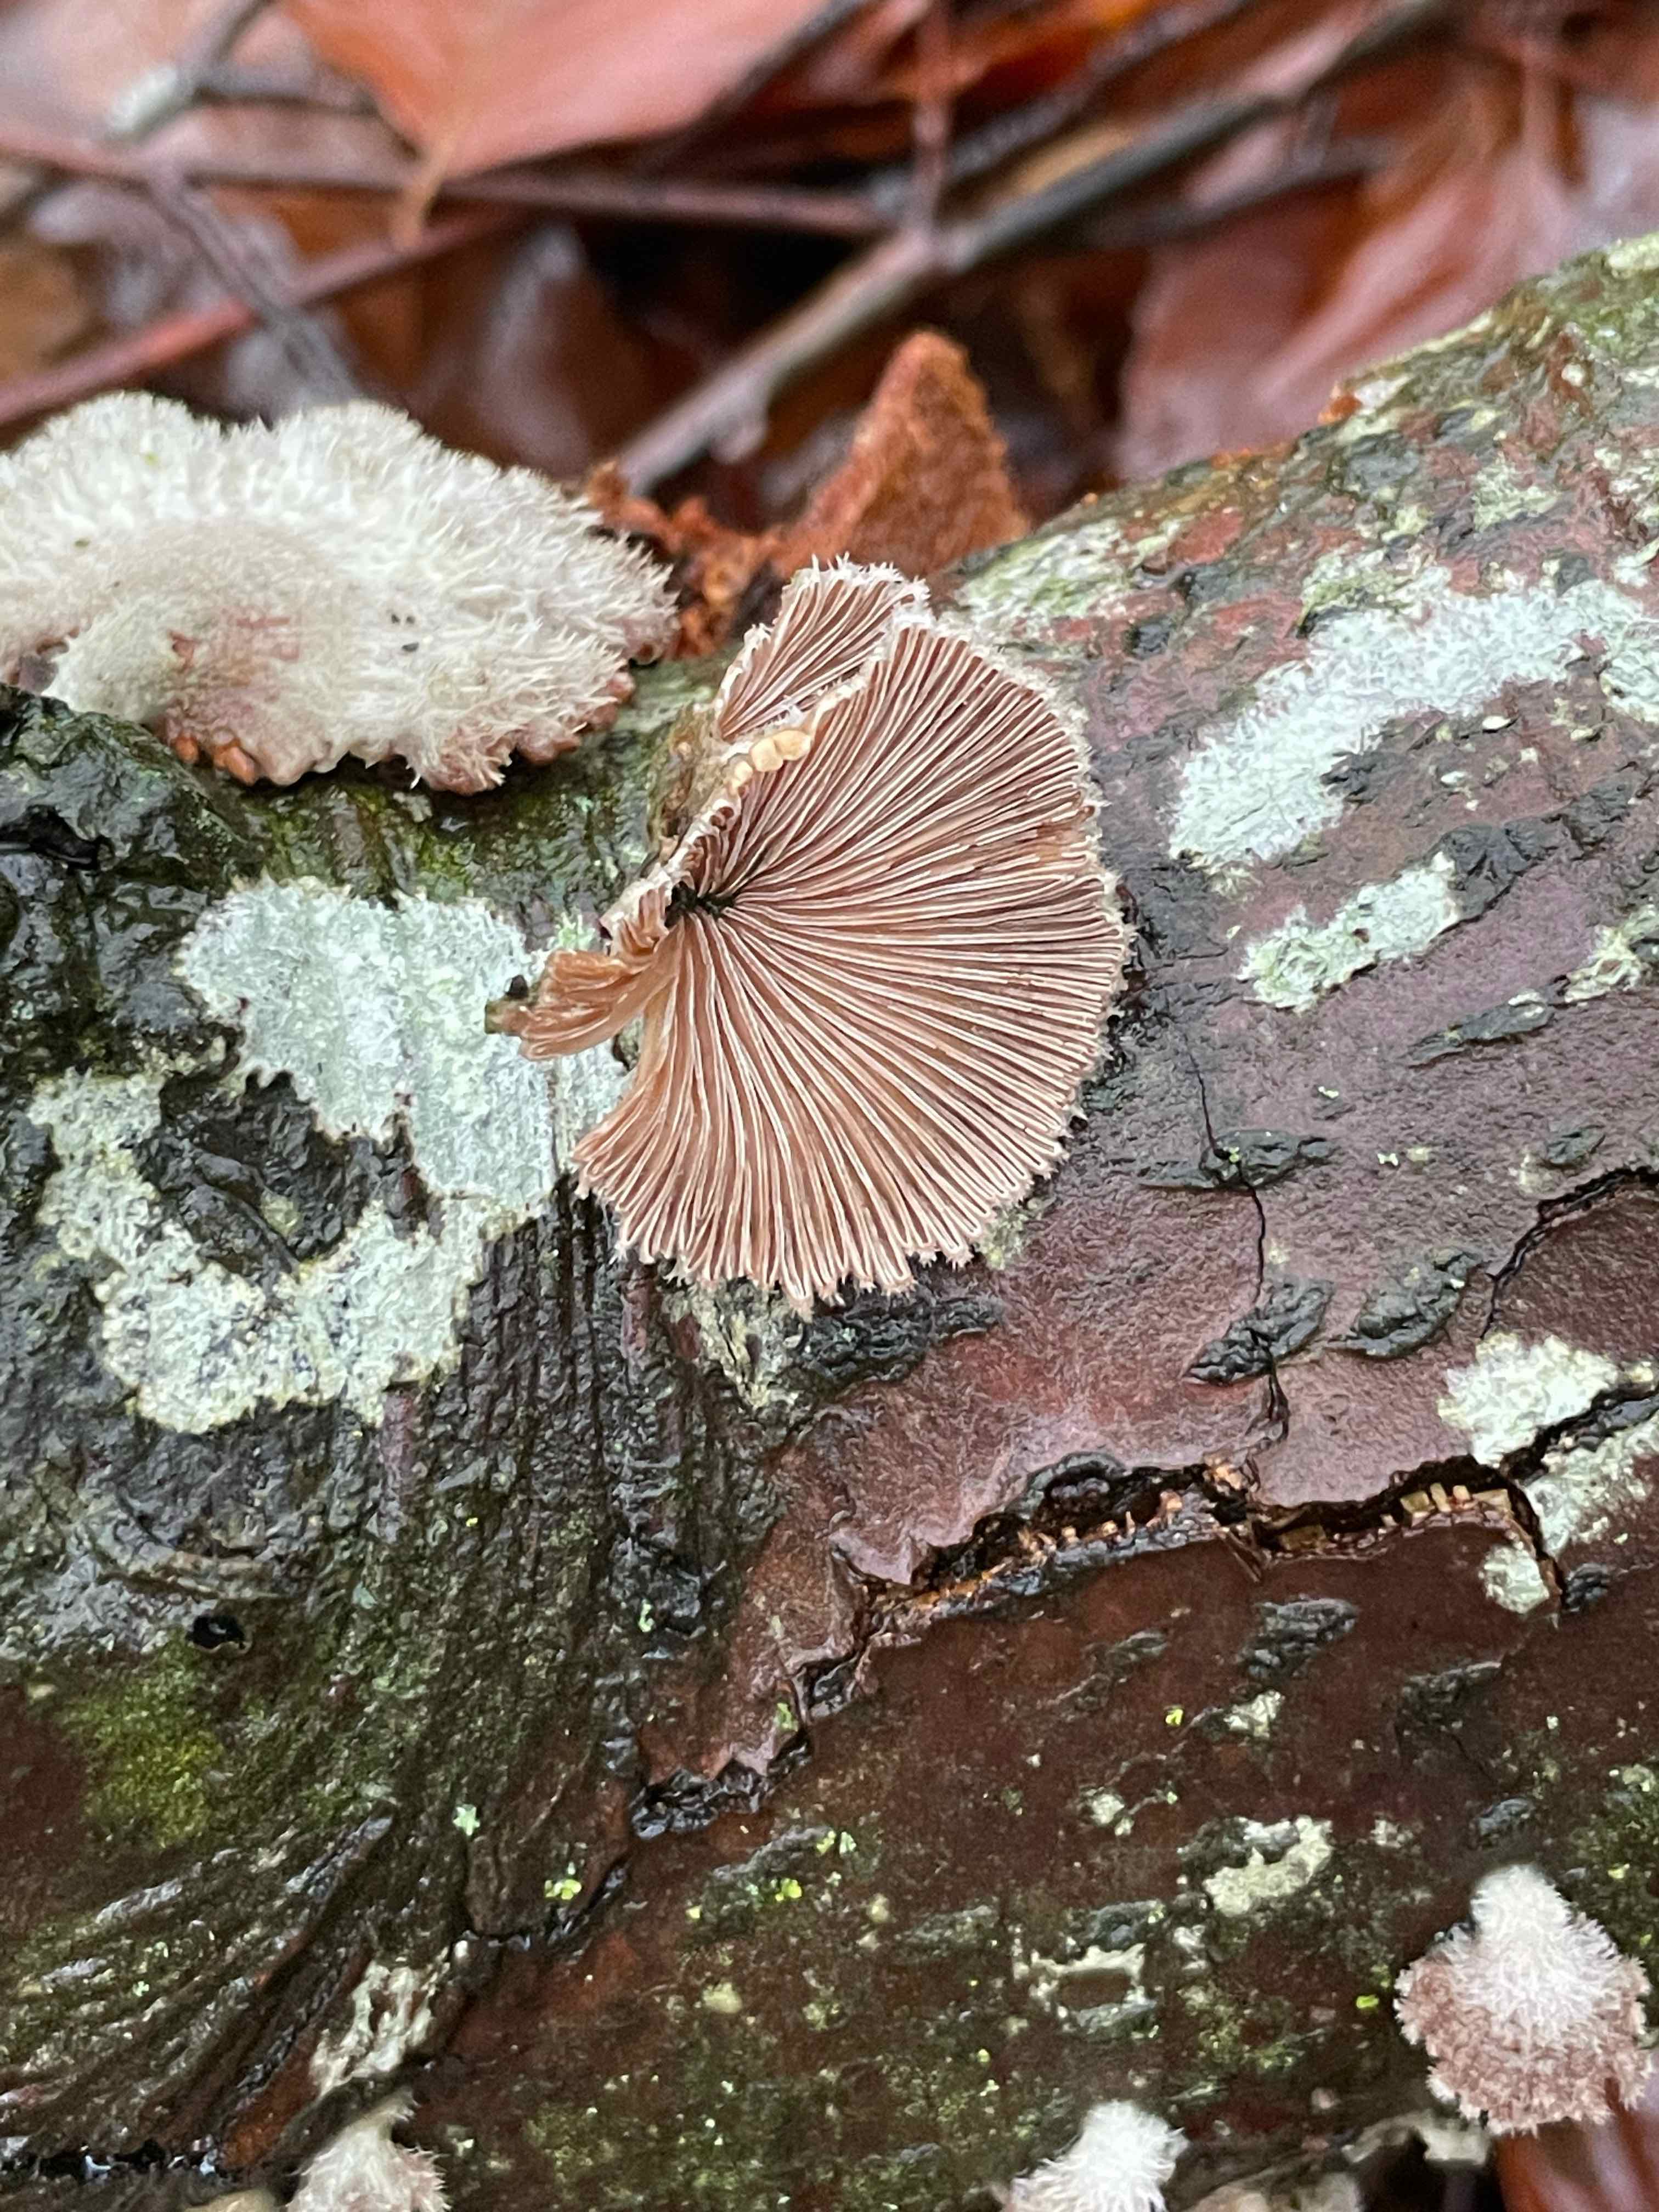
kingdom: Fungi
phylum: Basidiomycota
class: Agaricomycetes
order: Agaricales
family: Schizophyllaceae
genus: Schizophyllum
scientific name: Schizophyllum commune
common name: kløvblad
